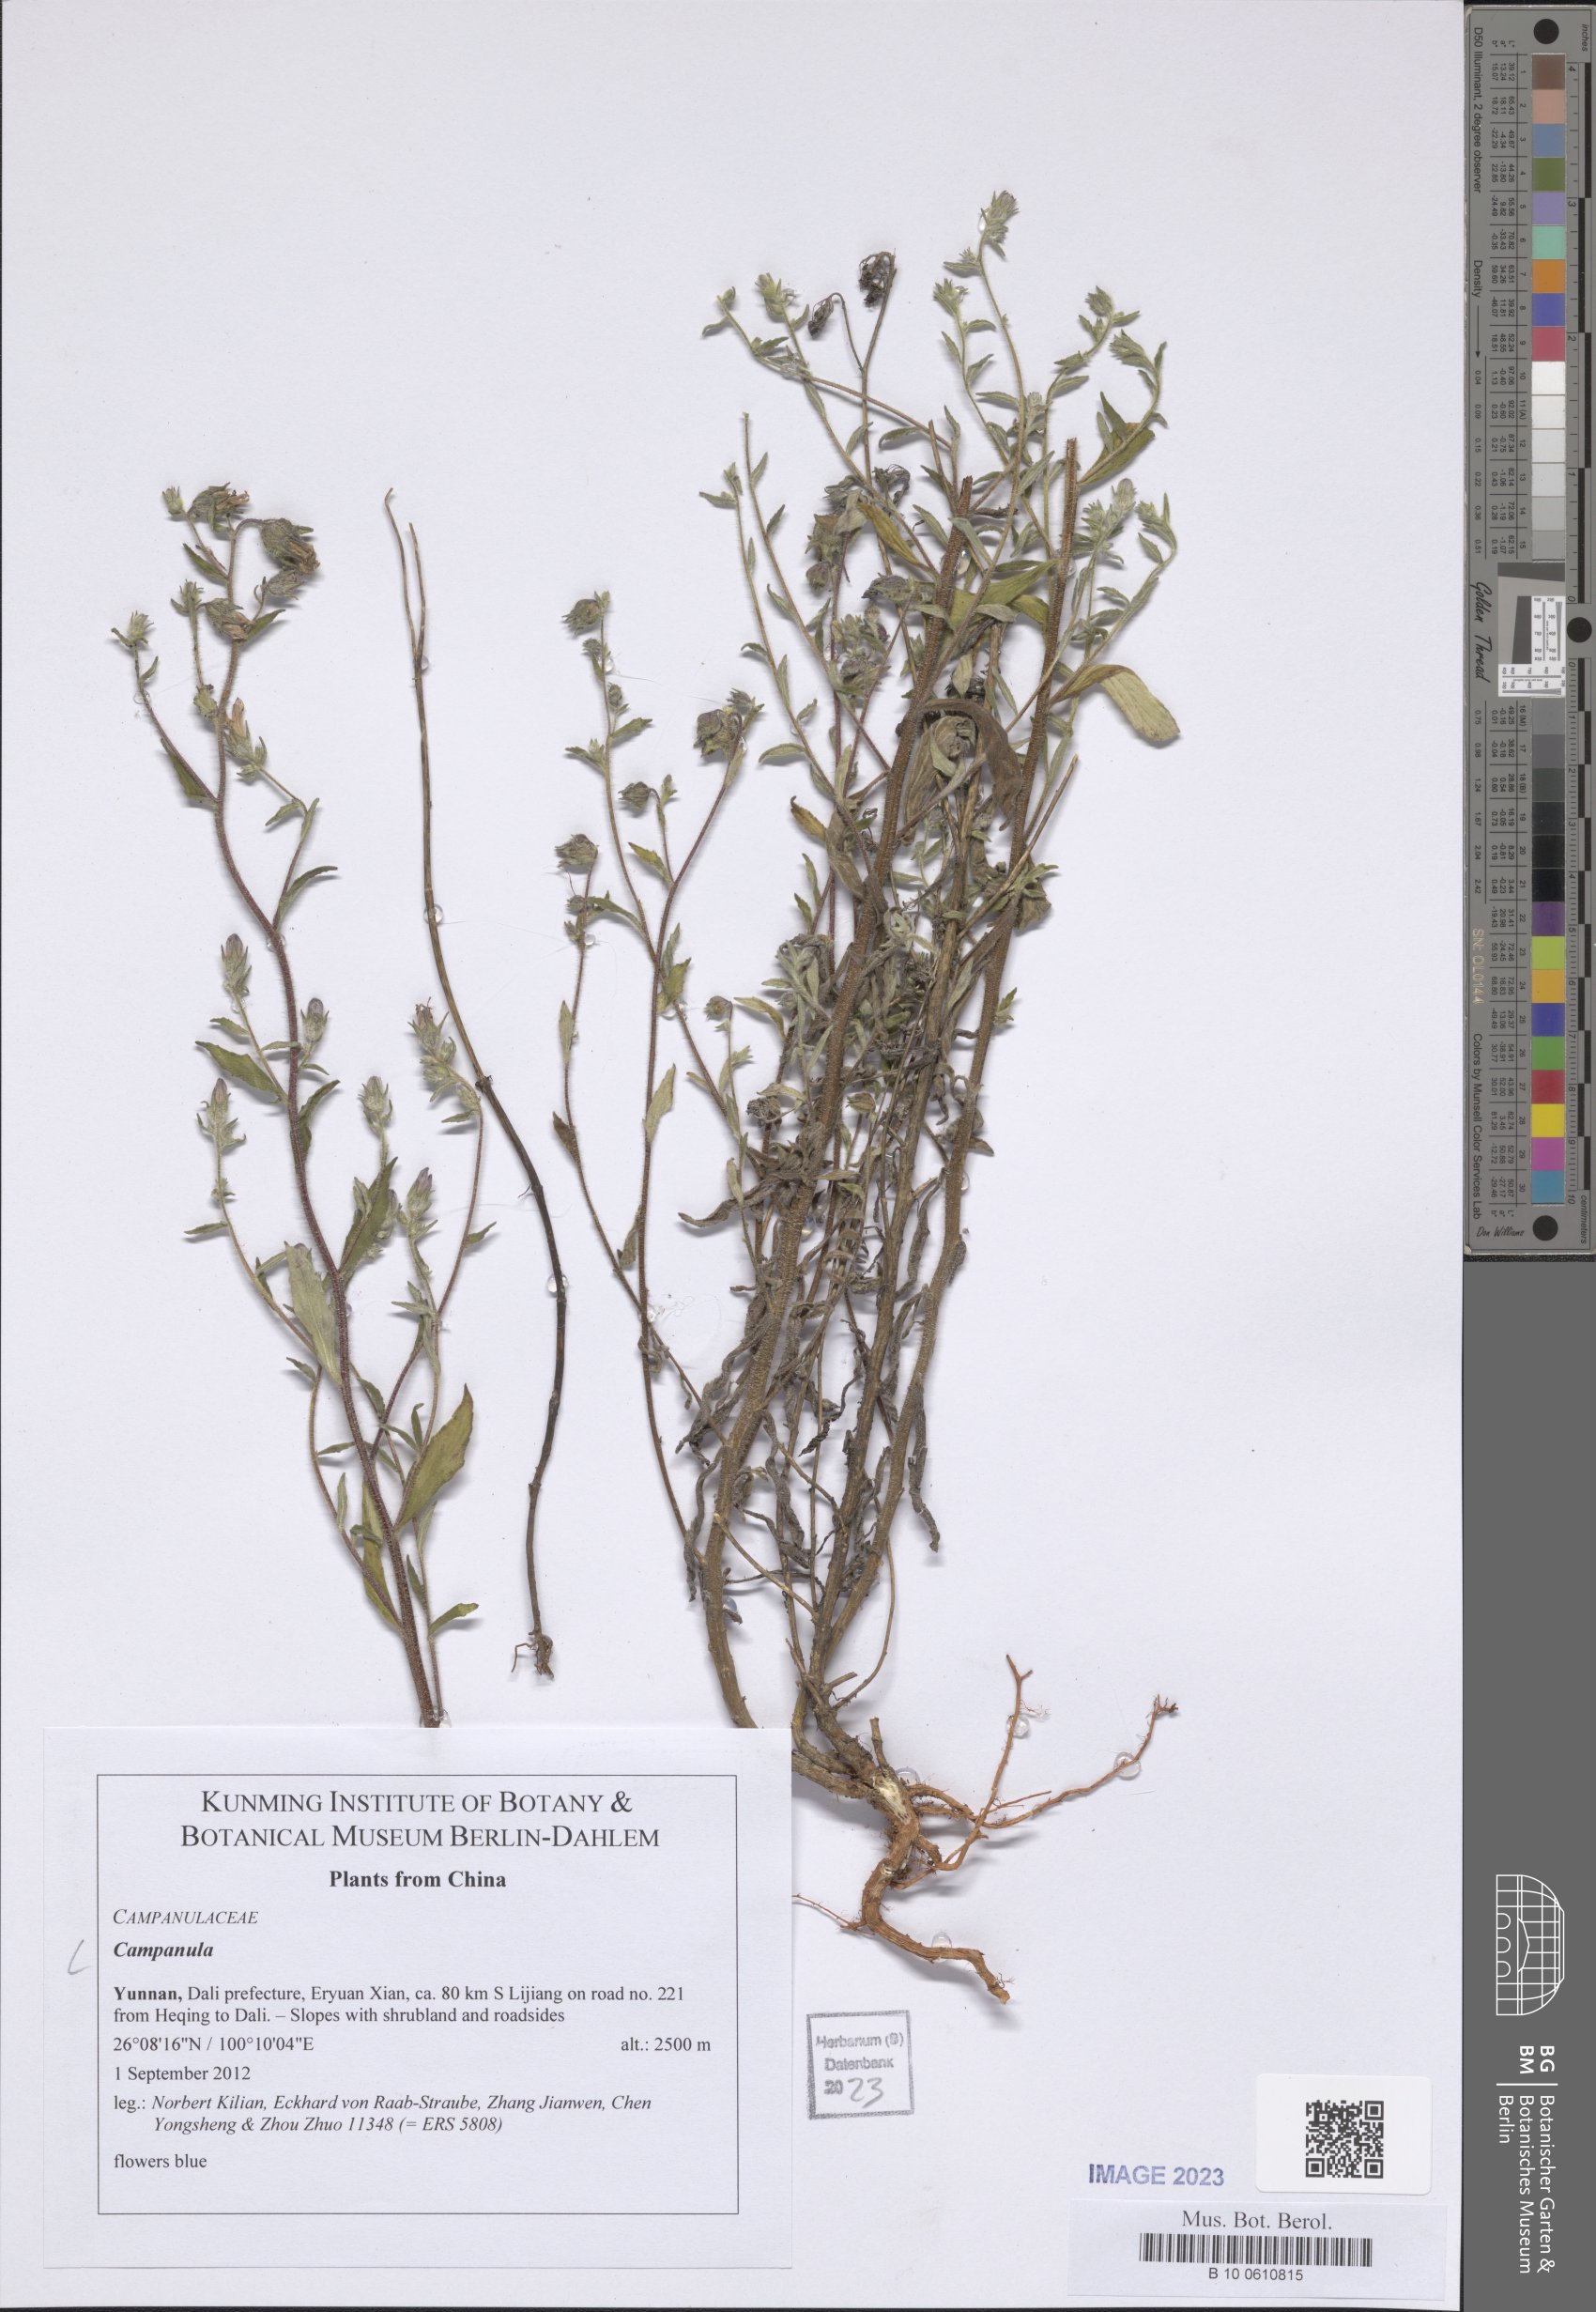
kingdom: Plantae
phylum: Tracheophyta
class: Magnoliopsida
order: Asterales
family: Campanulaceae
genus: Campanula
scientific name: Campanula
